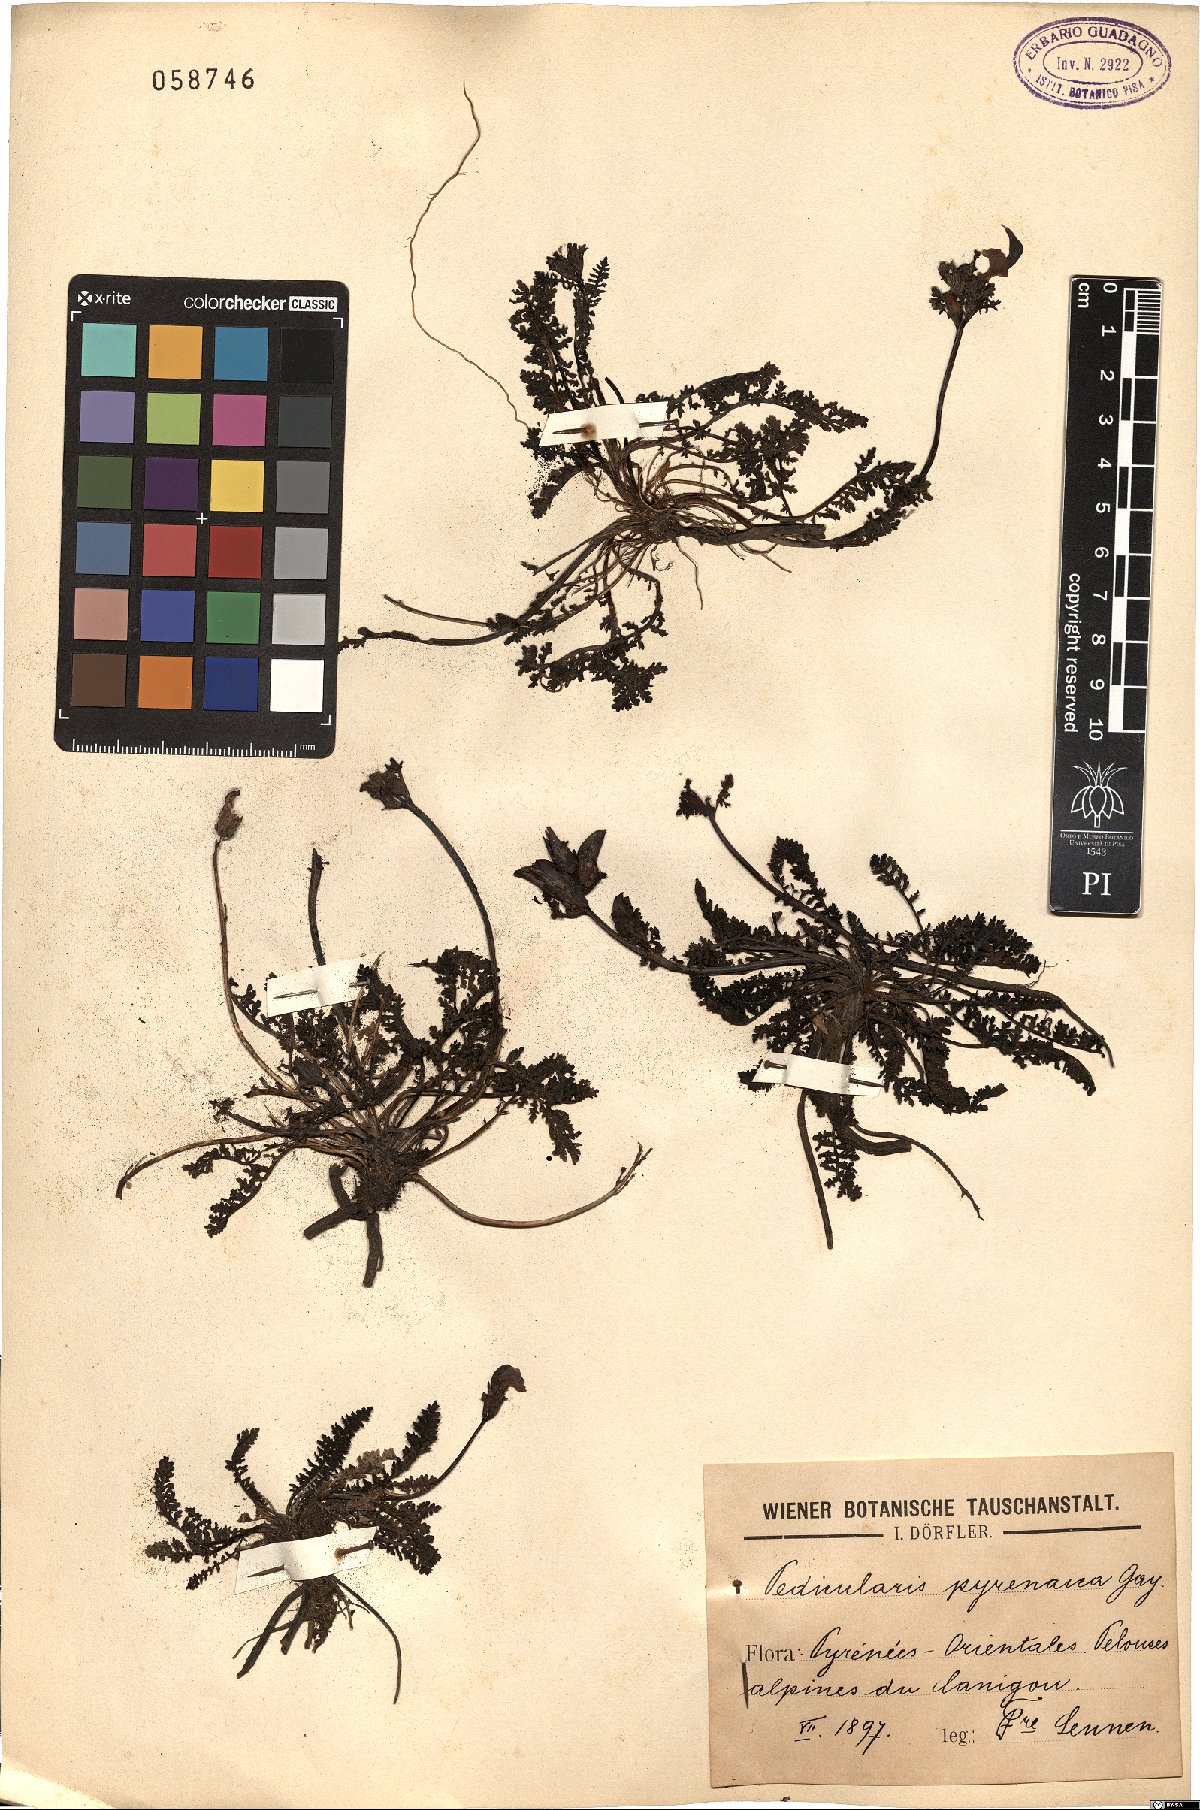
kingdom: Plantae
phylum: Tracheophyta
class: Magnoliopsida
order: Lamiales
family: Orobanchaceae
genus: Pedicularis
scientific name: Pedicularis pyrenaica
